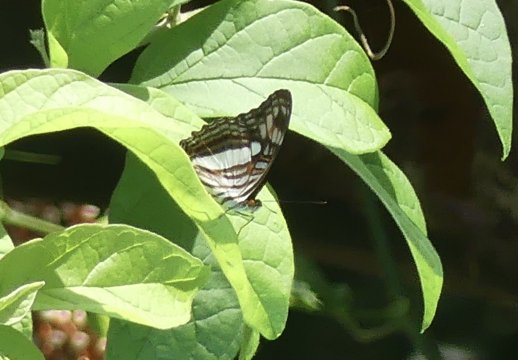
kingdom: Animalia
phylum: Arthropoda
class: Insecta
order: Lepidoptera
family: Nymphalidae
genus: Limenitis
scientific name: Limenitis malea
